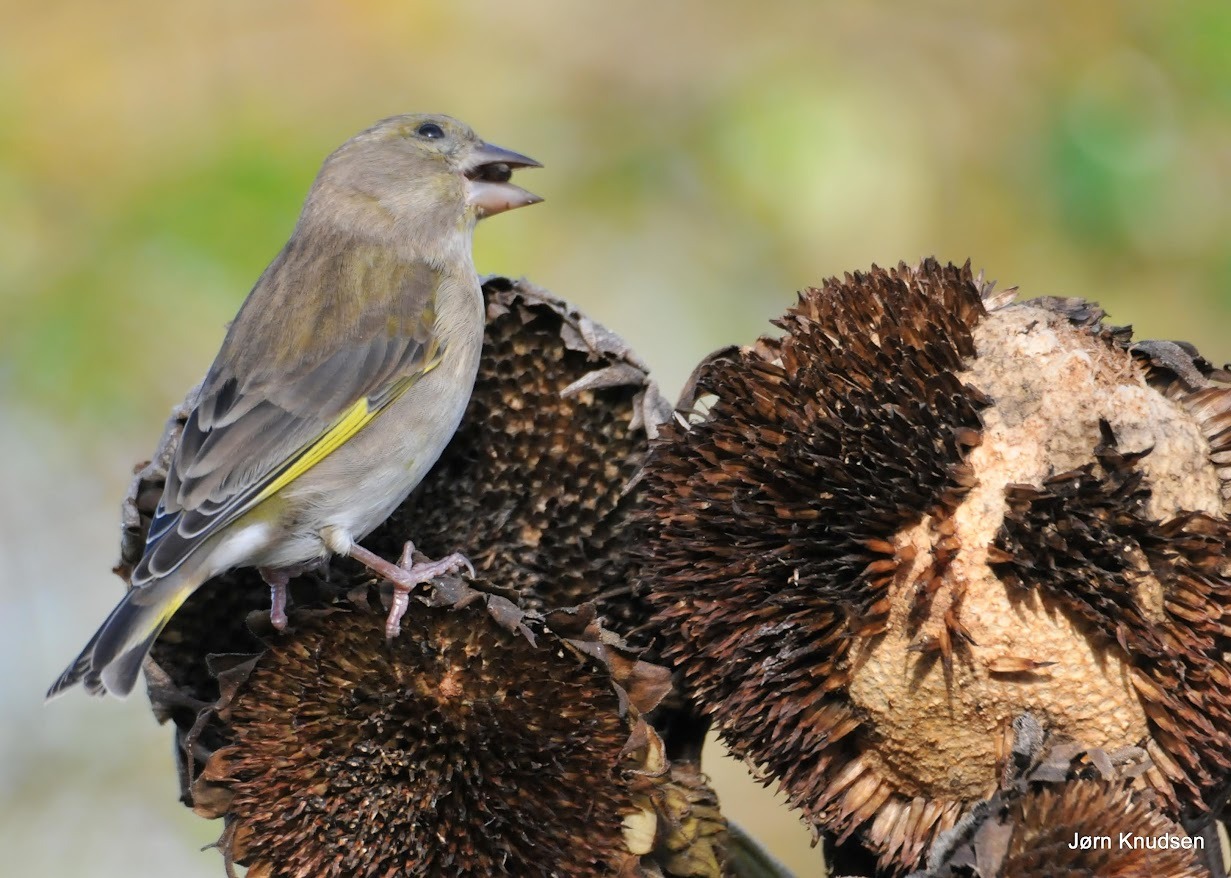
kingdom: Plantae
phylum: Tracheophyta
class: Liliopsida
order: Poales
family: Poaceae
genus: Chloris
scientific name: Chloris chloris
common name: Grønirisk
